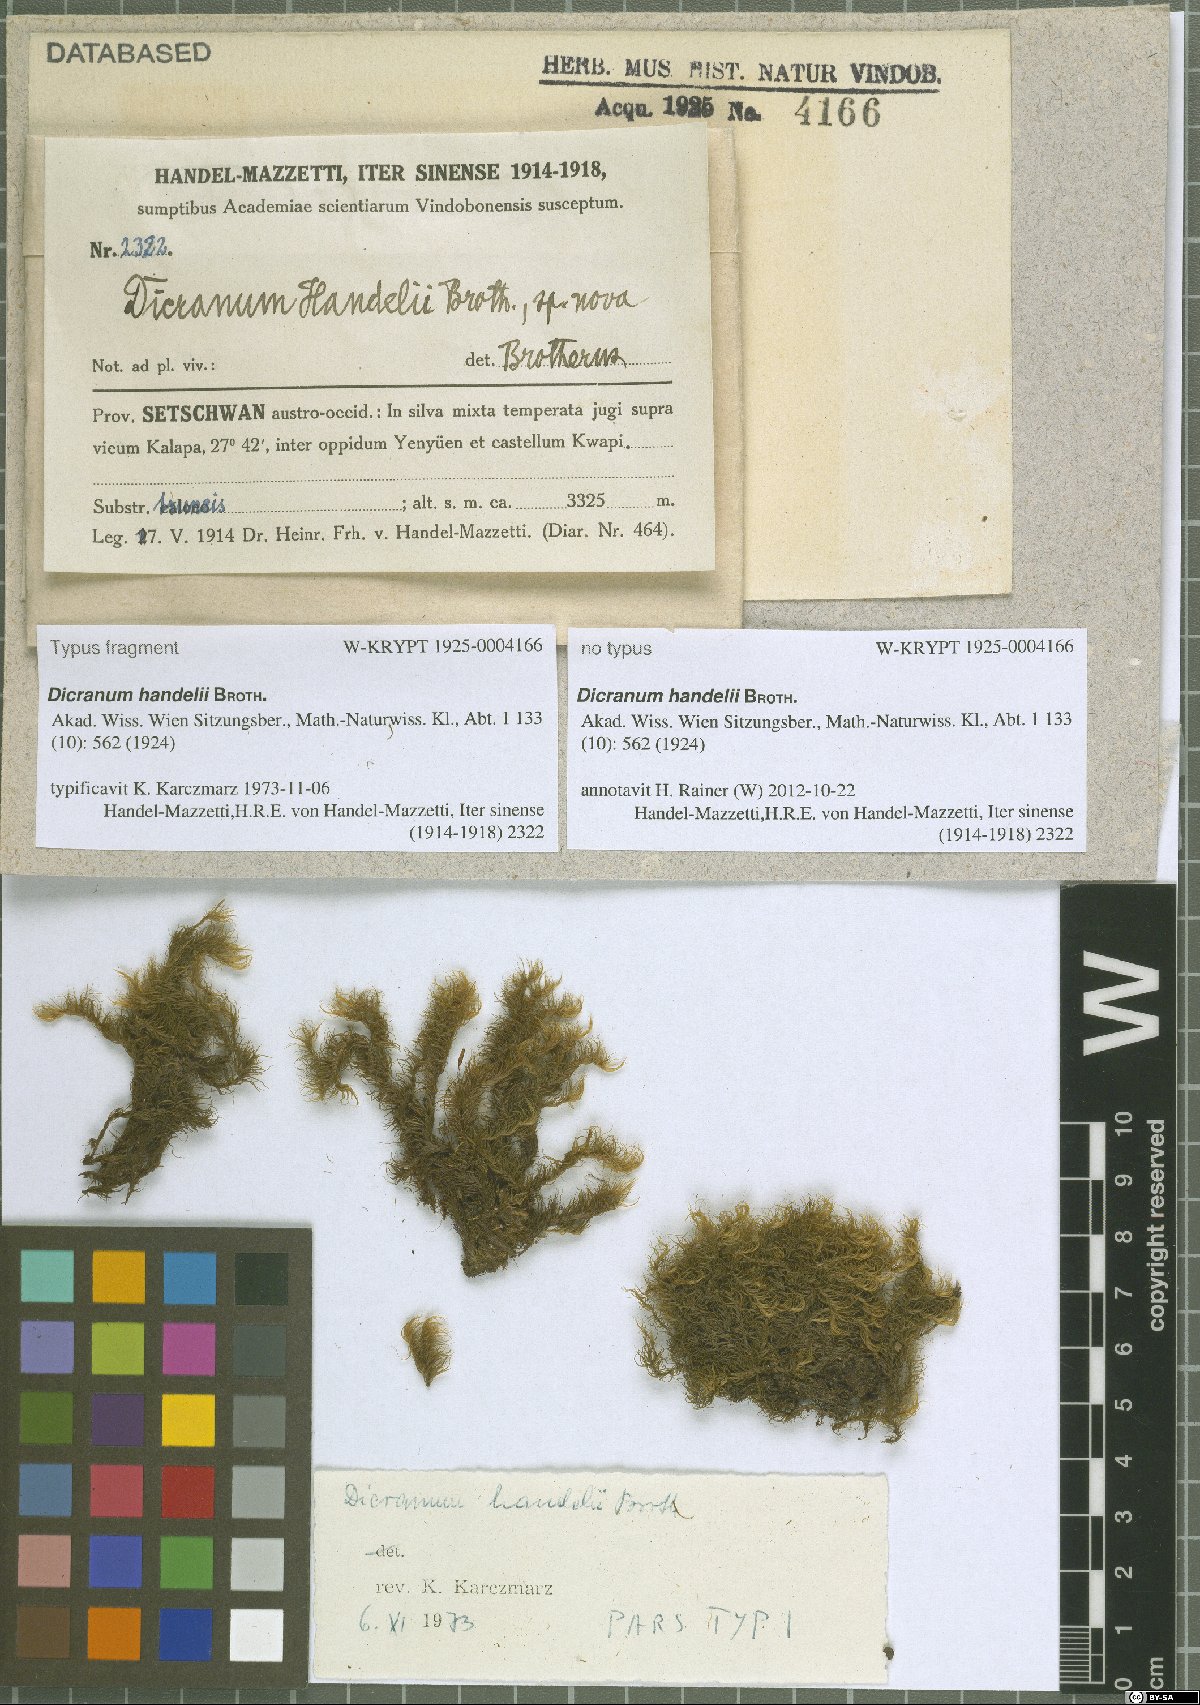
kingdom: Plantae
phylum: Bryophyta
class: Bryopsida
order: Dicranales
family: Dicranaceae
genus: Pseudochorisodontium
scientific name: Pseudochorisodontium hokinense
